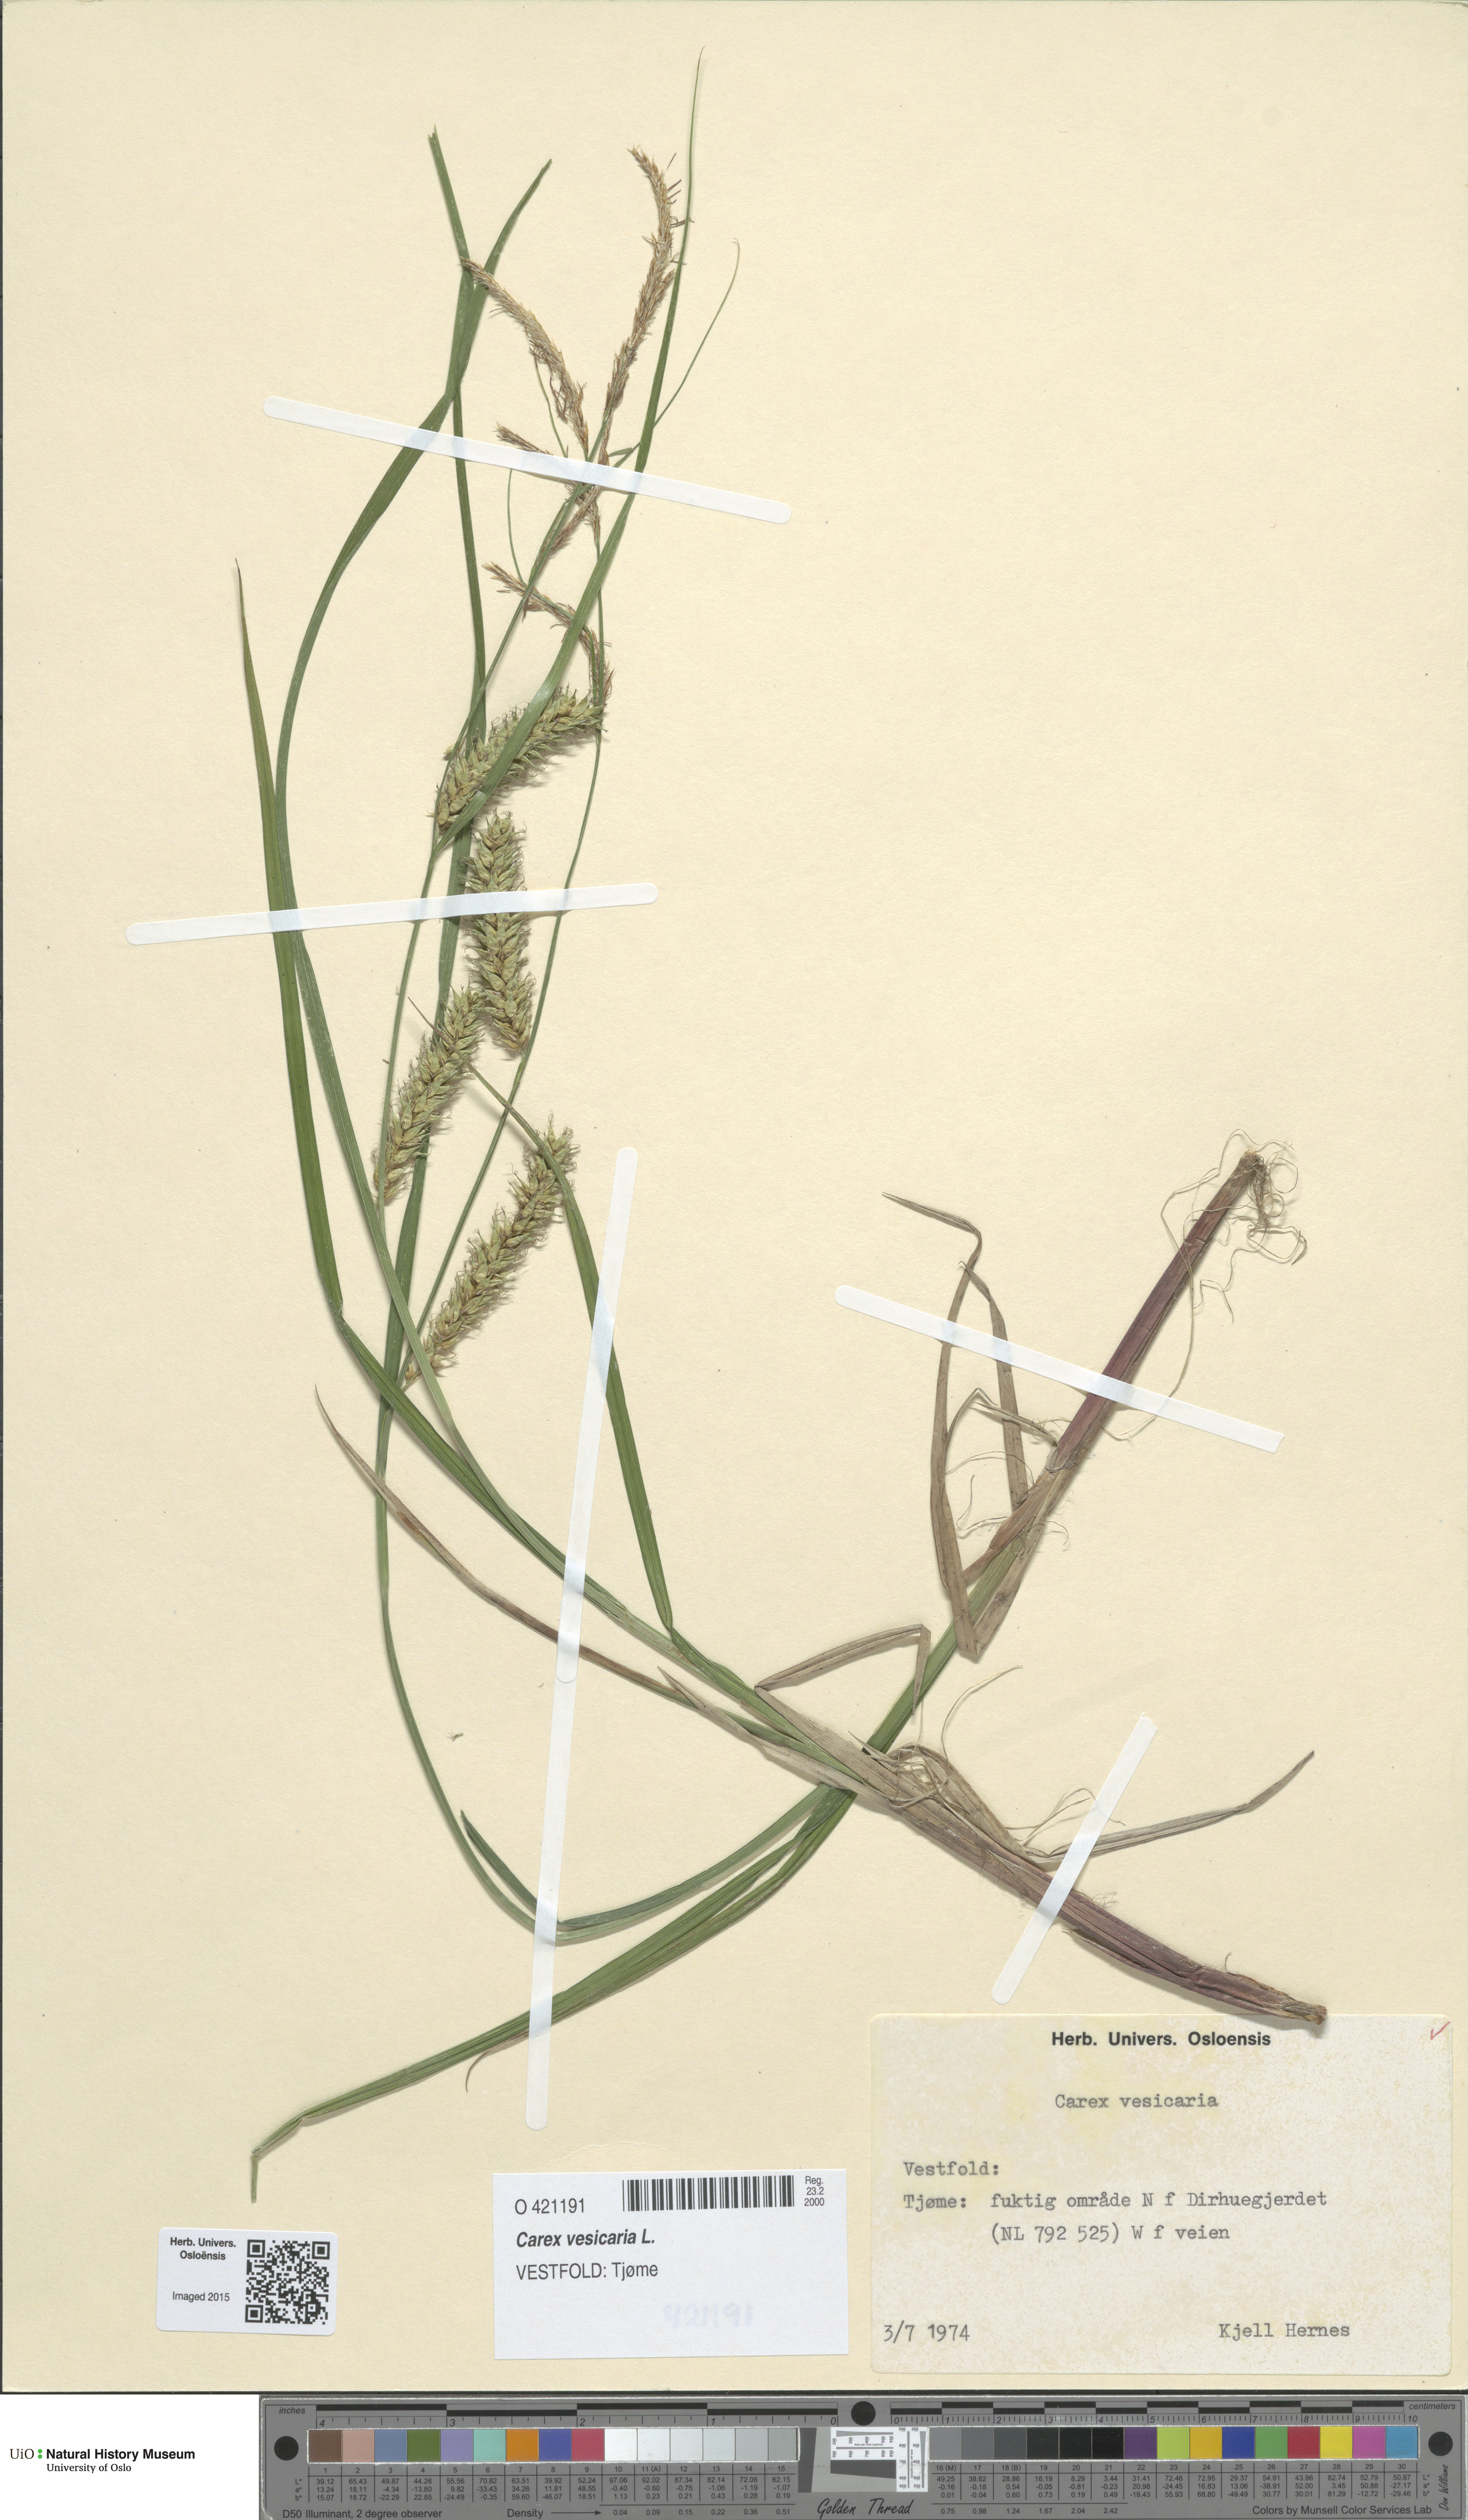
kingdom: Plantae
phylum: Tracheophyta
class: Liliopsida
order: Poales
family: Cyperaceae
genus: Carex
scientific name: Carex vesicaria
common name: Bladder-sedge
